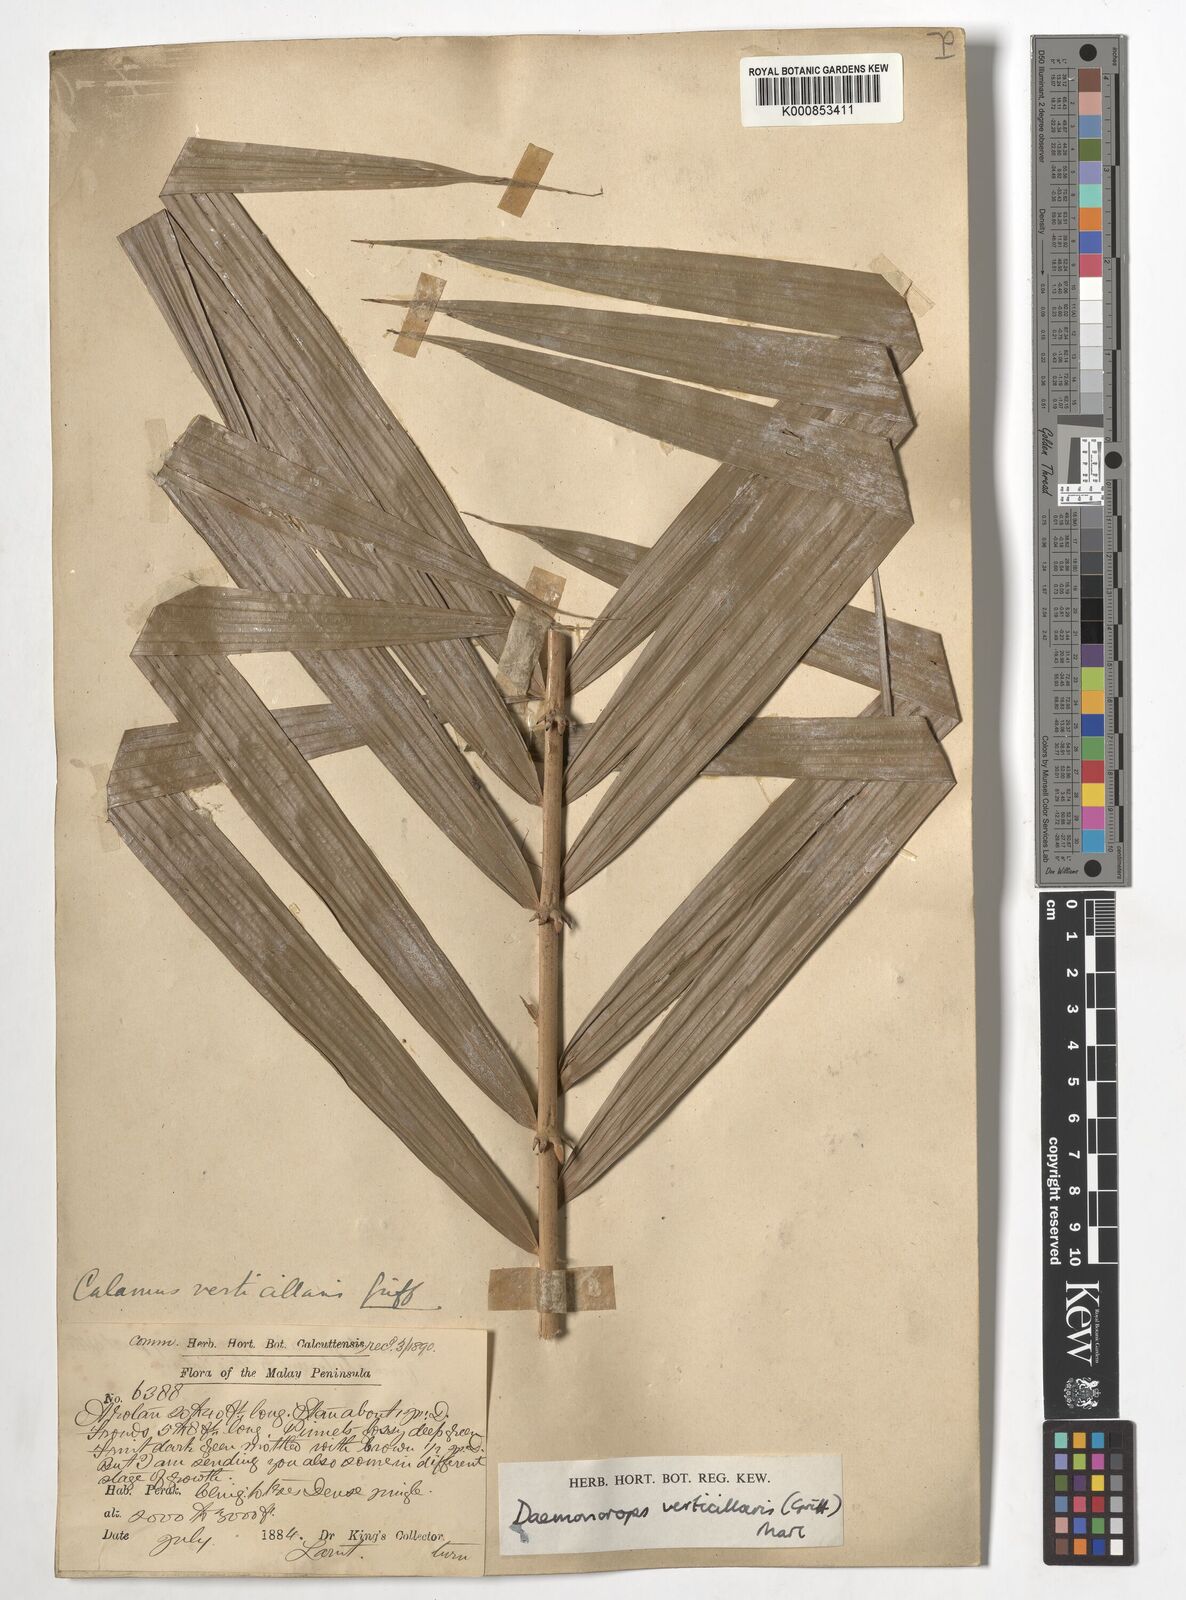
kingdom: Plantae
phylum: Tracheophyta
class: Liliopsida
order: Arecales
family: Arecaceae
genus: Calamus
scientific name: Calamus verticillaris
